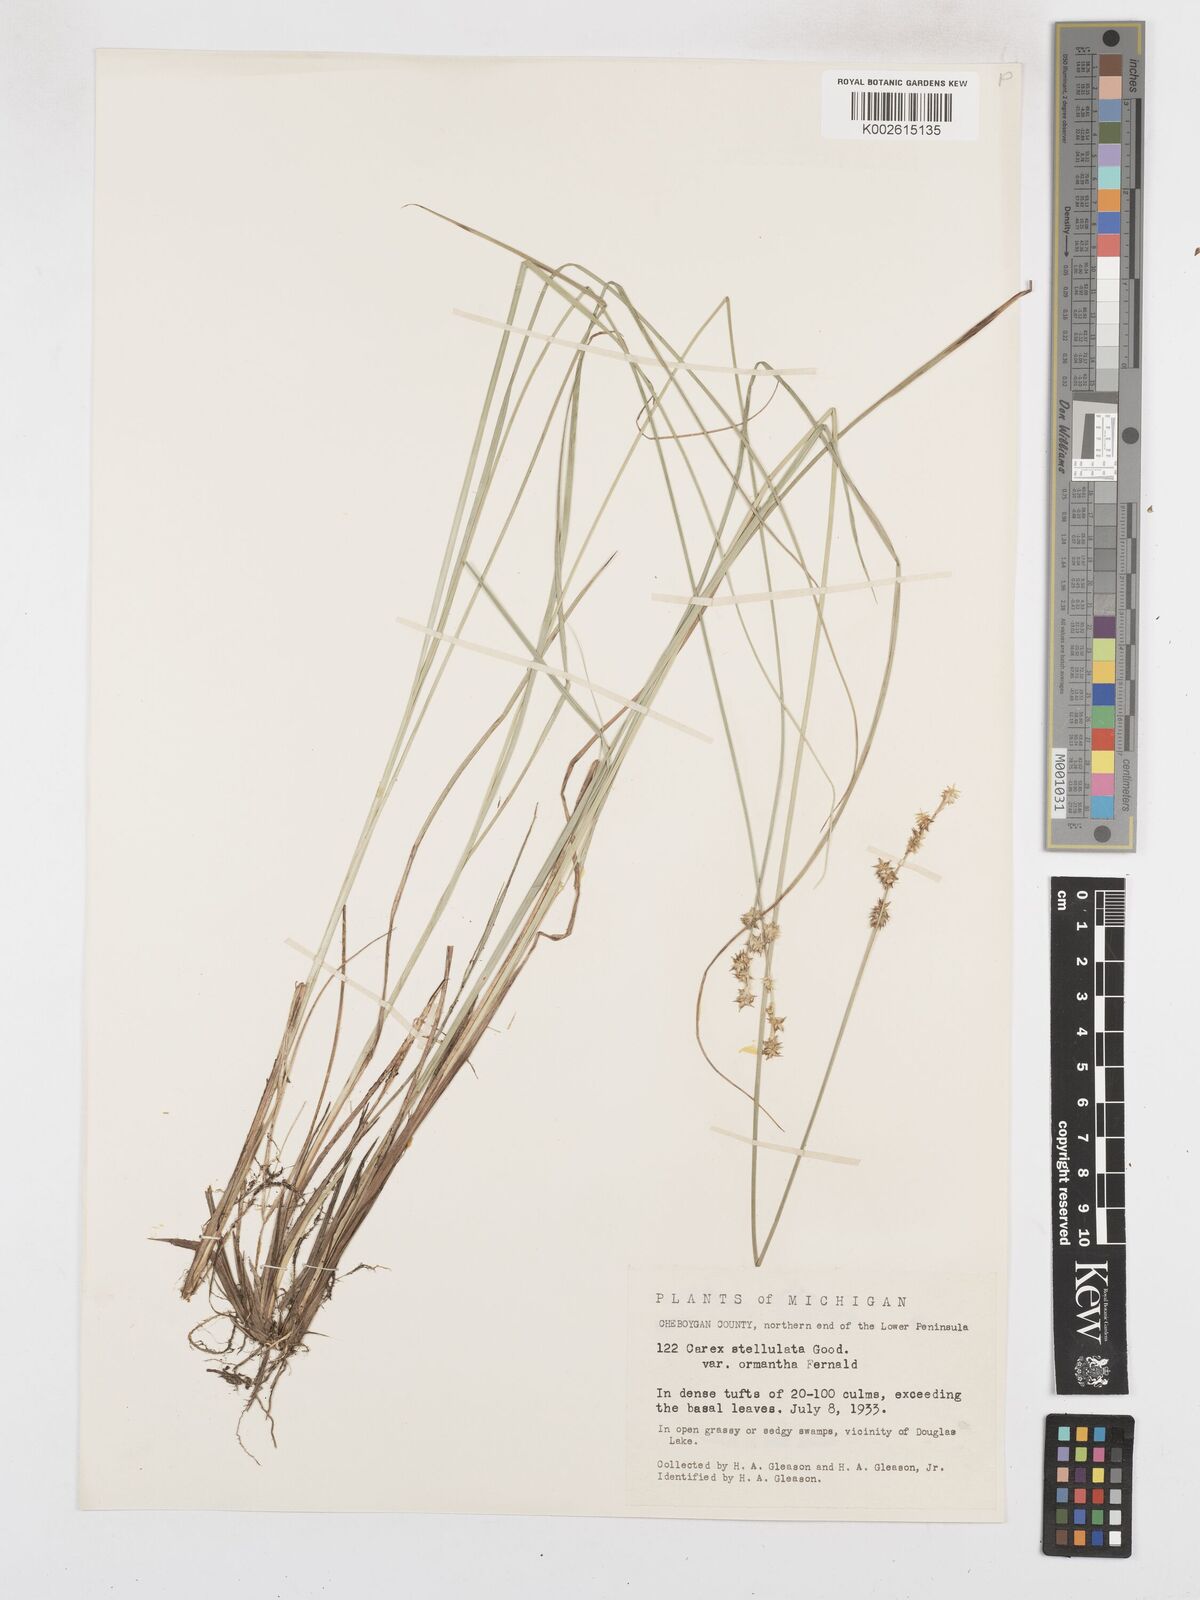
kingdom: Plantae
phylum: Tracheophyta
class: Liliopsida
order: Poales
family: Cyperaceae
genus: Carex
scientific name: Carex echinata
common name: Star sedge
